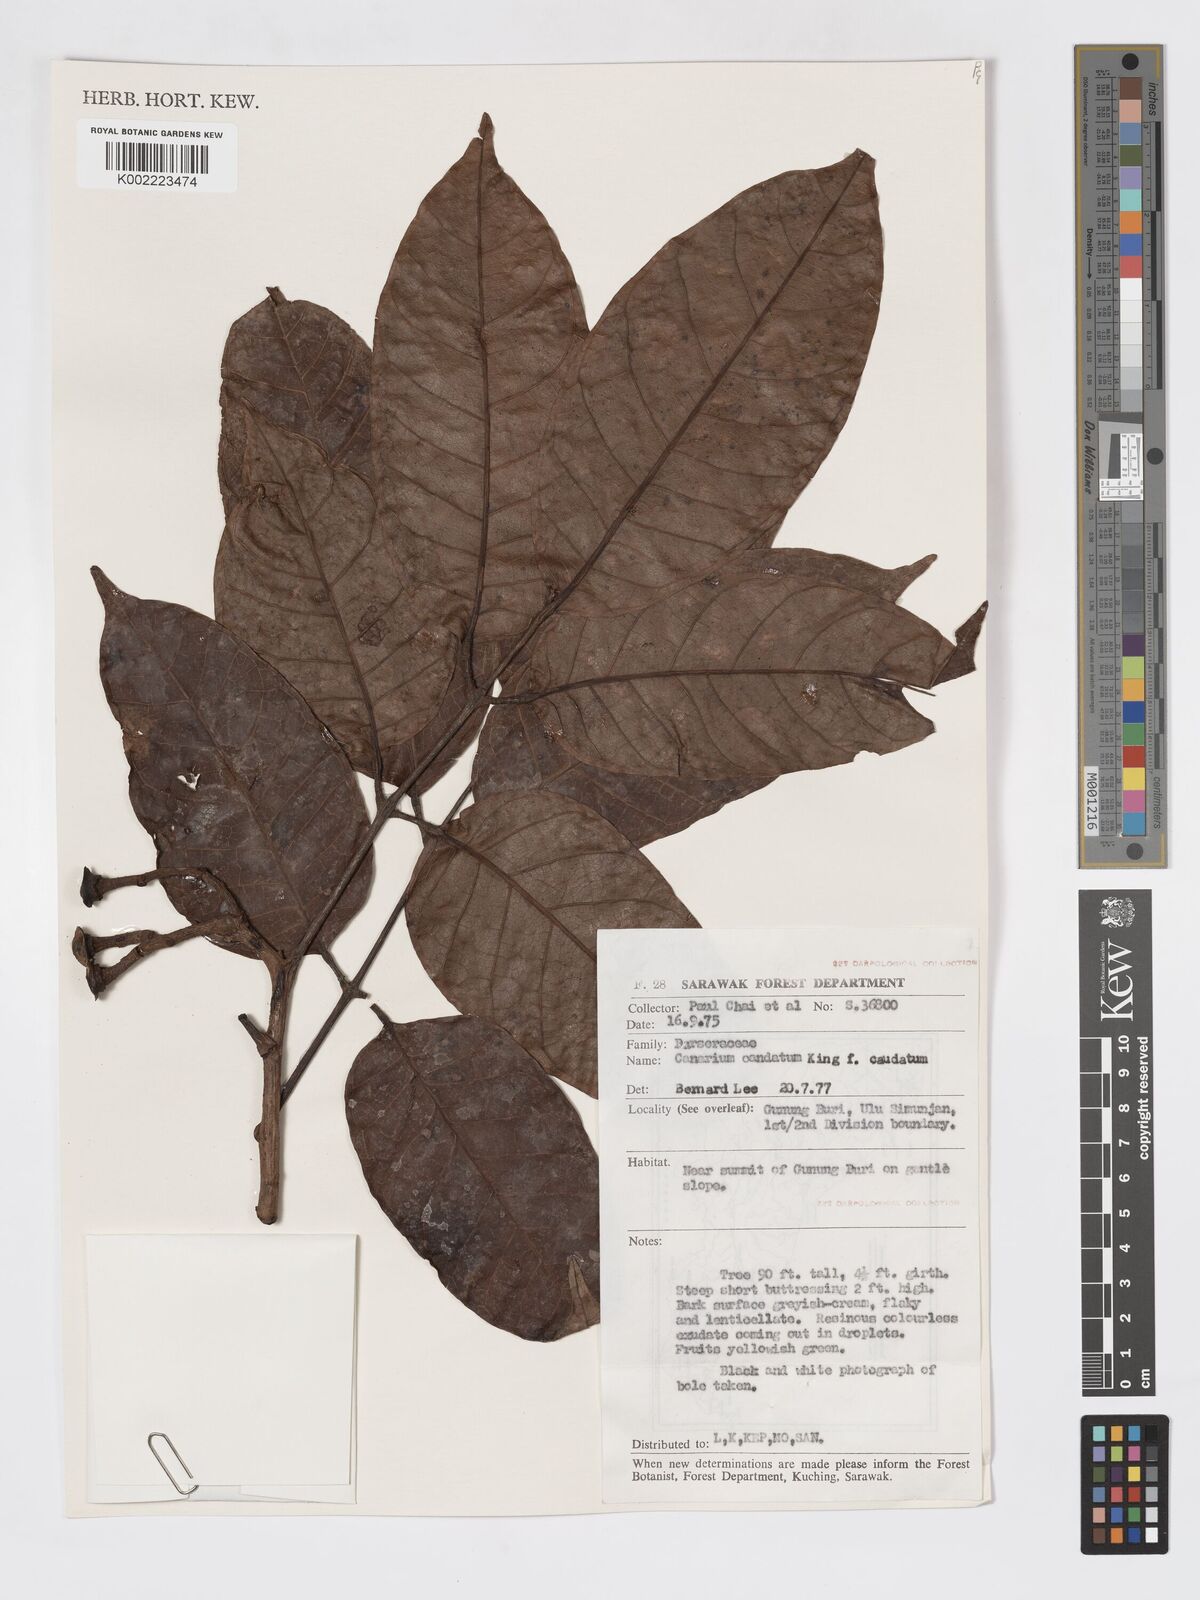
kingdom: Plantae
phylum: Tracheophyta
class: Magnoliopsida
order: Sapindales
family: Burseraceae
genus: Canarium
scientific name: Canarium caudatum
